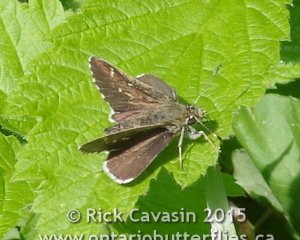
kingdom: Animalia
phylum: Arthropoda
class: Insecta
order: Lepidoptera
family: Hesperiidae
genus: Mastor
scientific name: Mastor hegon
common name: Pepper and Salt Skipper
